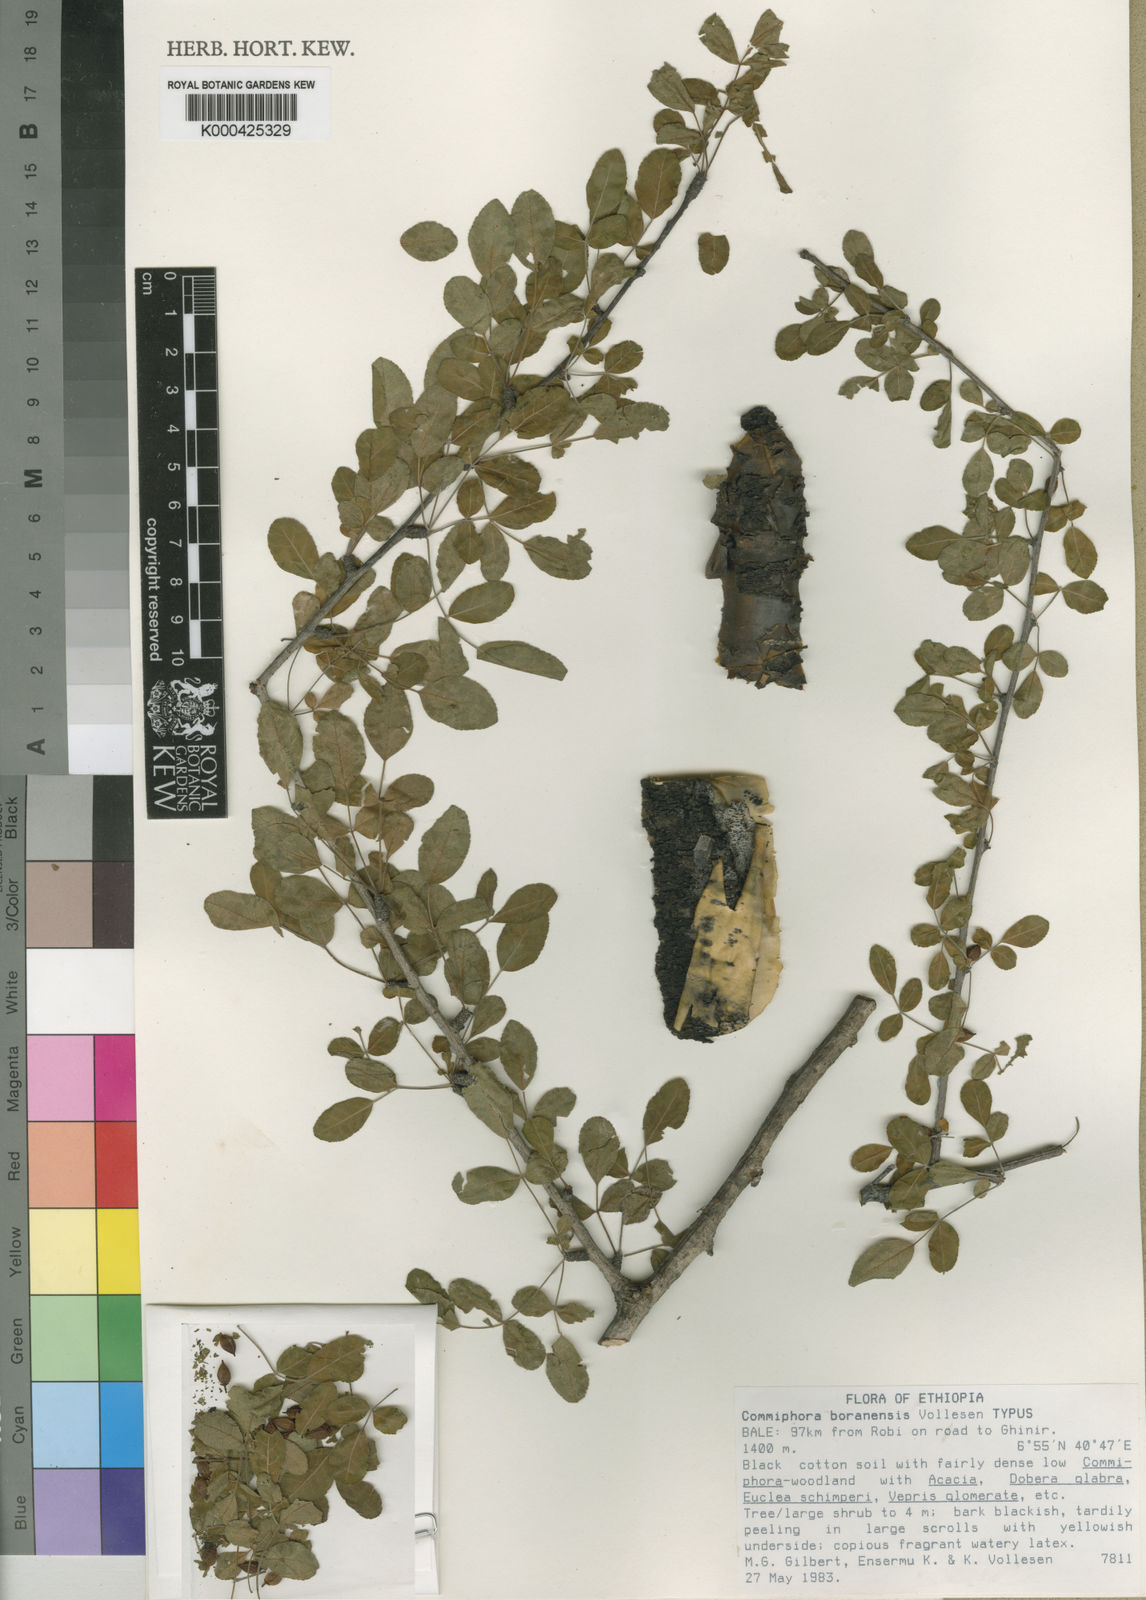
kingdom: Plantae
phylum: Tracheophyta
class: Magnoliopsida
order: Sapindales
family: Burseraceae
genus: Commiphora
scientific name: Commiphora boranensis
